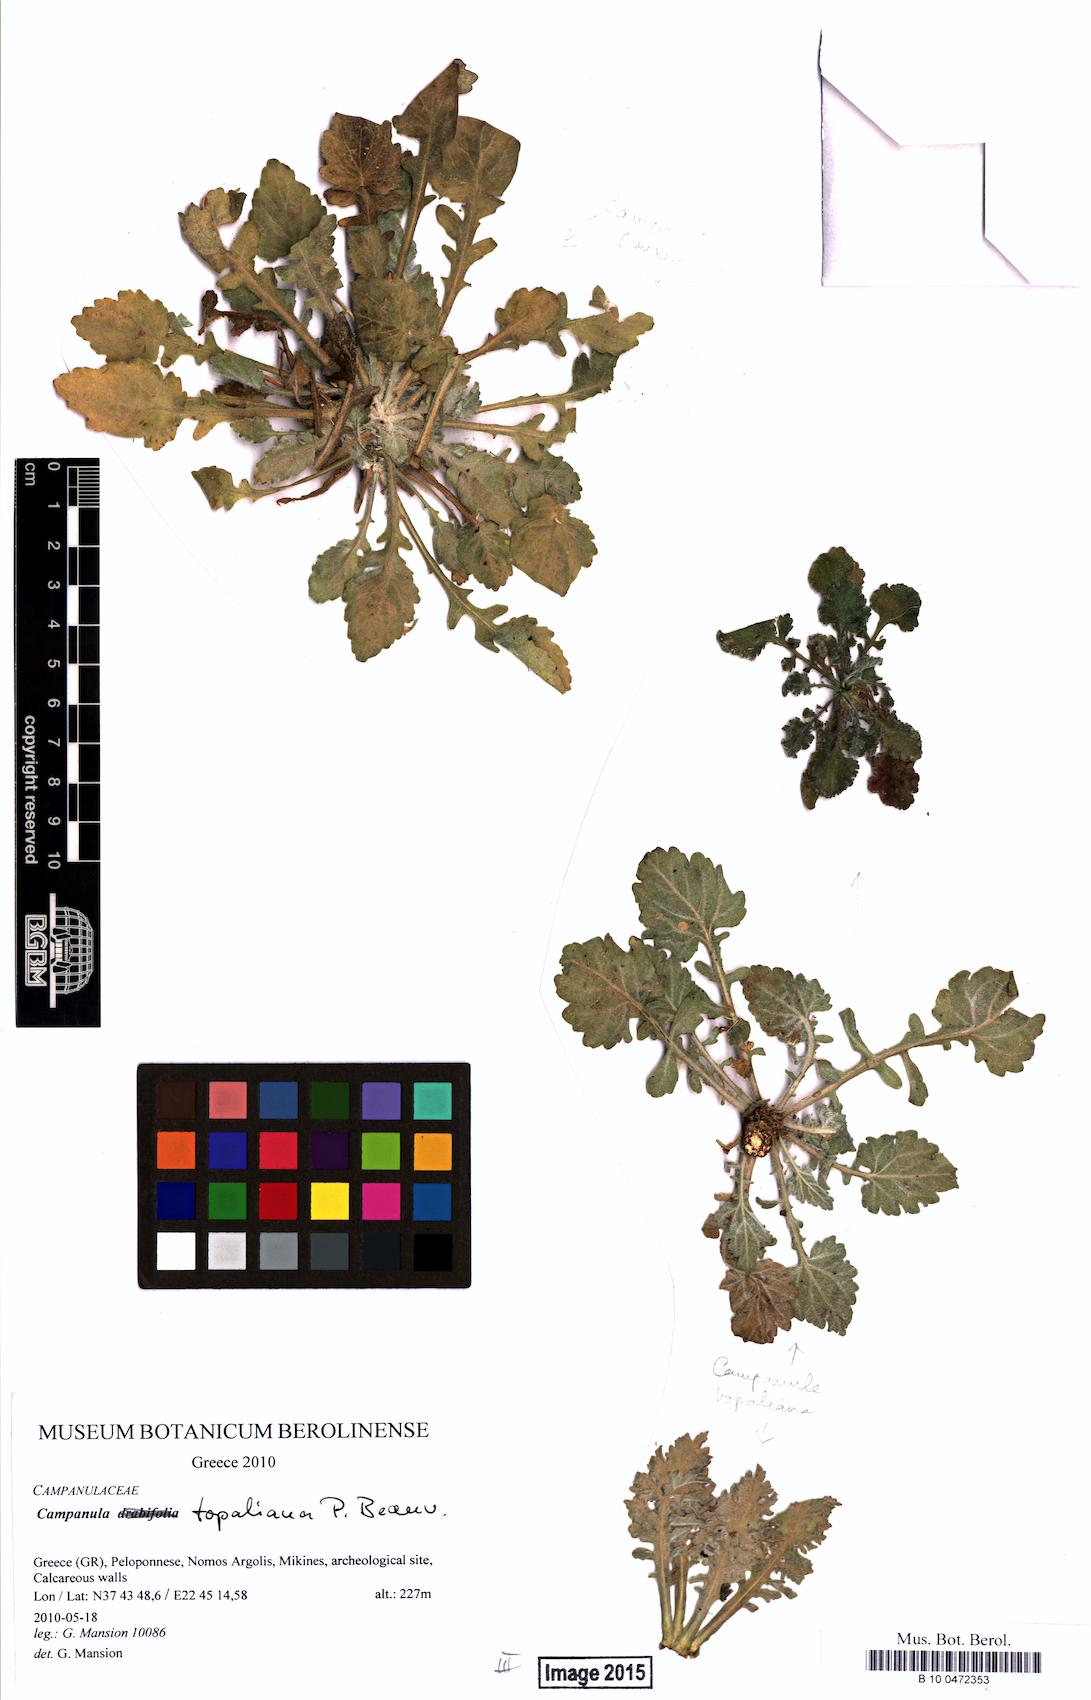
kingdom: Plantae
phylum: Tracheophyta
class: Magnoliopsida
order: Asterales
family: Campanulaceae
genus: Campanula
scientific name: Campanula topaliana
